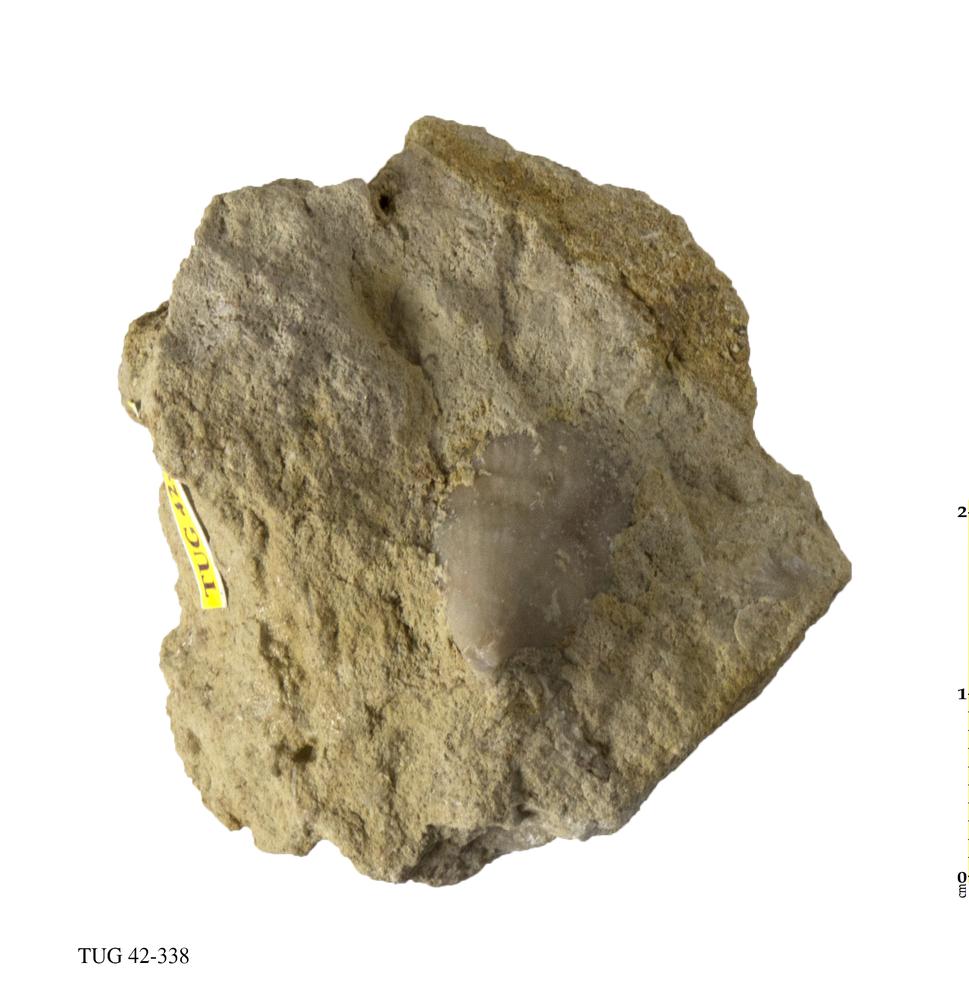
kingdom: Animalia
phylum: Cnidaria
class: Anthozoa
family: Streptelasmatidae
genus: Streptelasma
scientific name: Streptelasma corniculum
